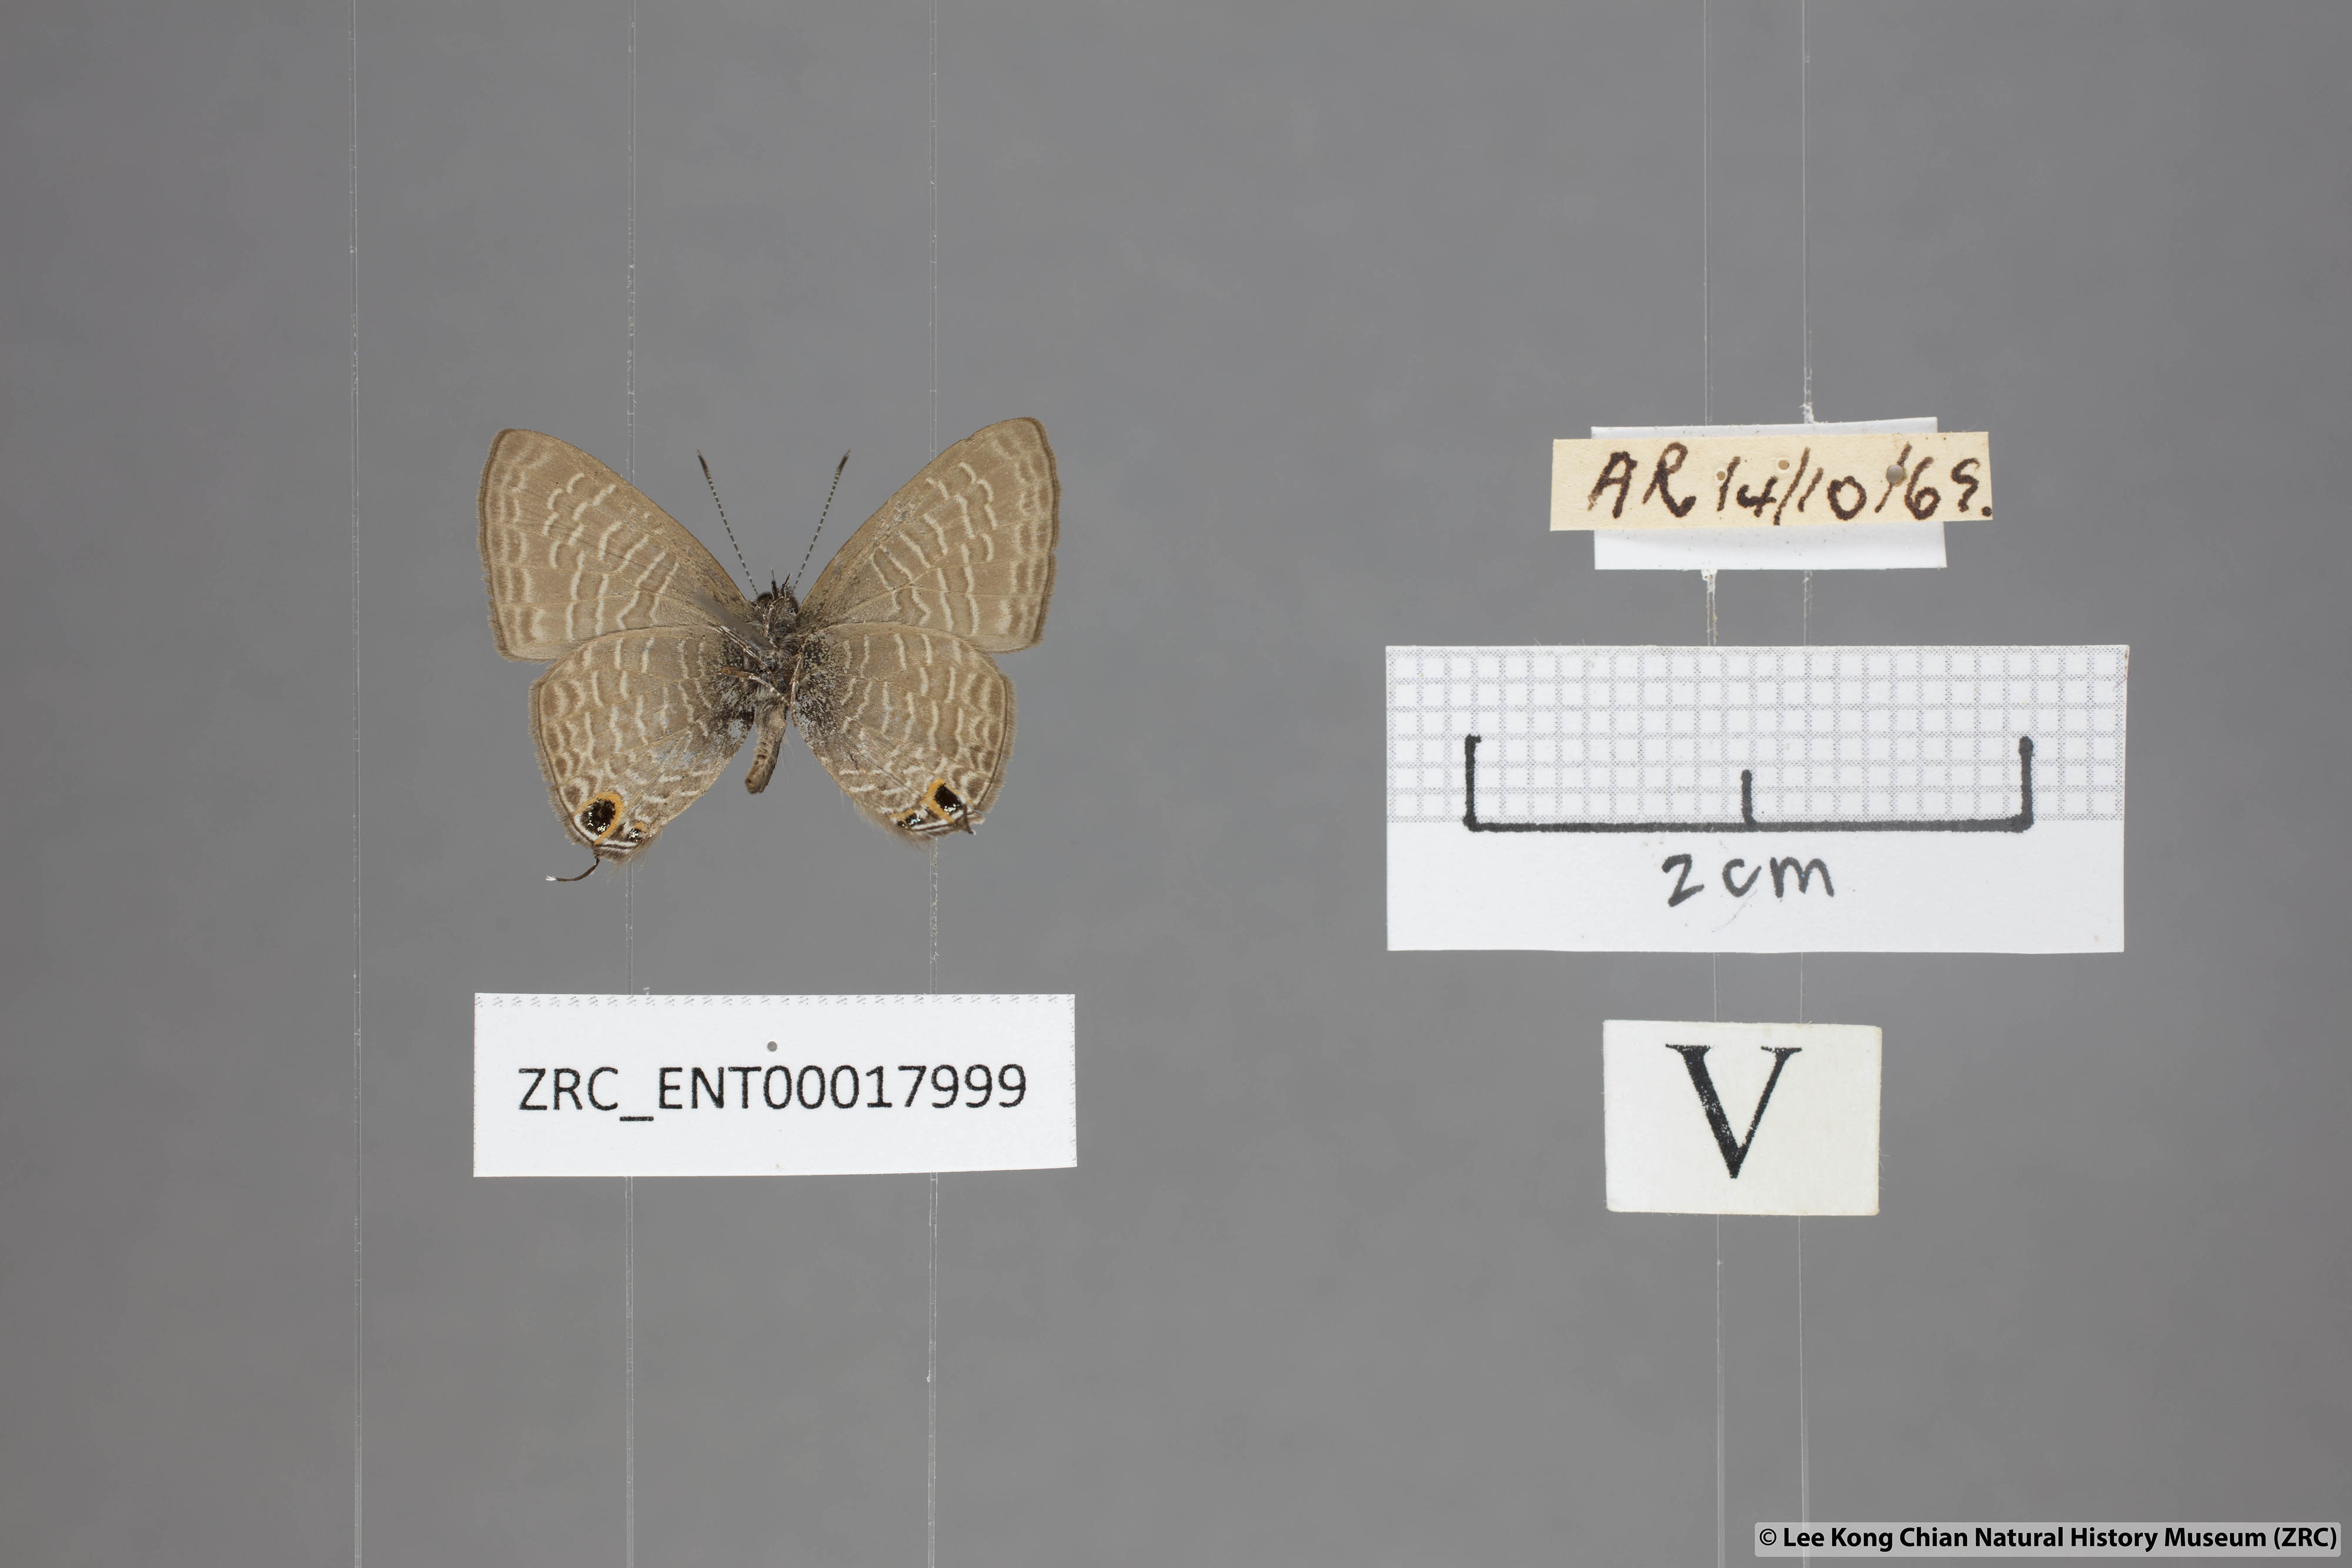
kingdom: Animalia
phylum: Arthropoda
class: Insecta
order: Lepidoptera
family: Lycaenidae
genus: Ionolyce
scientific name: Ionolyce helicon
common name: Pointed line blue
